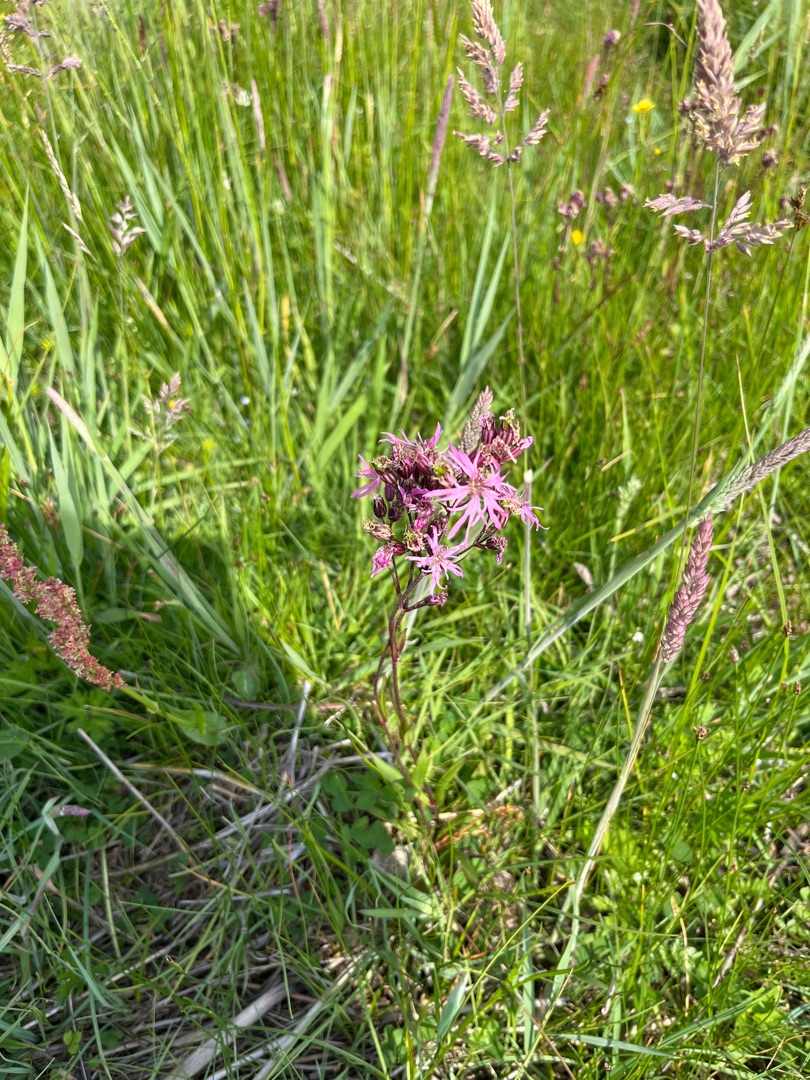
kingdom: Plantae
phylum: Tracheophyta
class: Magnoliopsida
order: Caryophyllales
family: Caryophyllaceae
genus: Silene
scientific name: Silene flos-cuculi
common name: Trævlekrone
